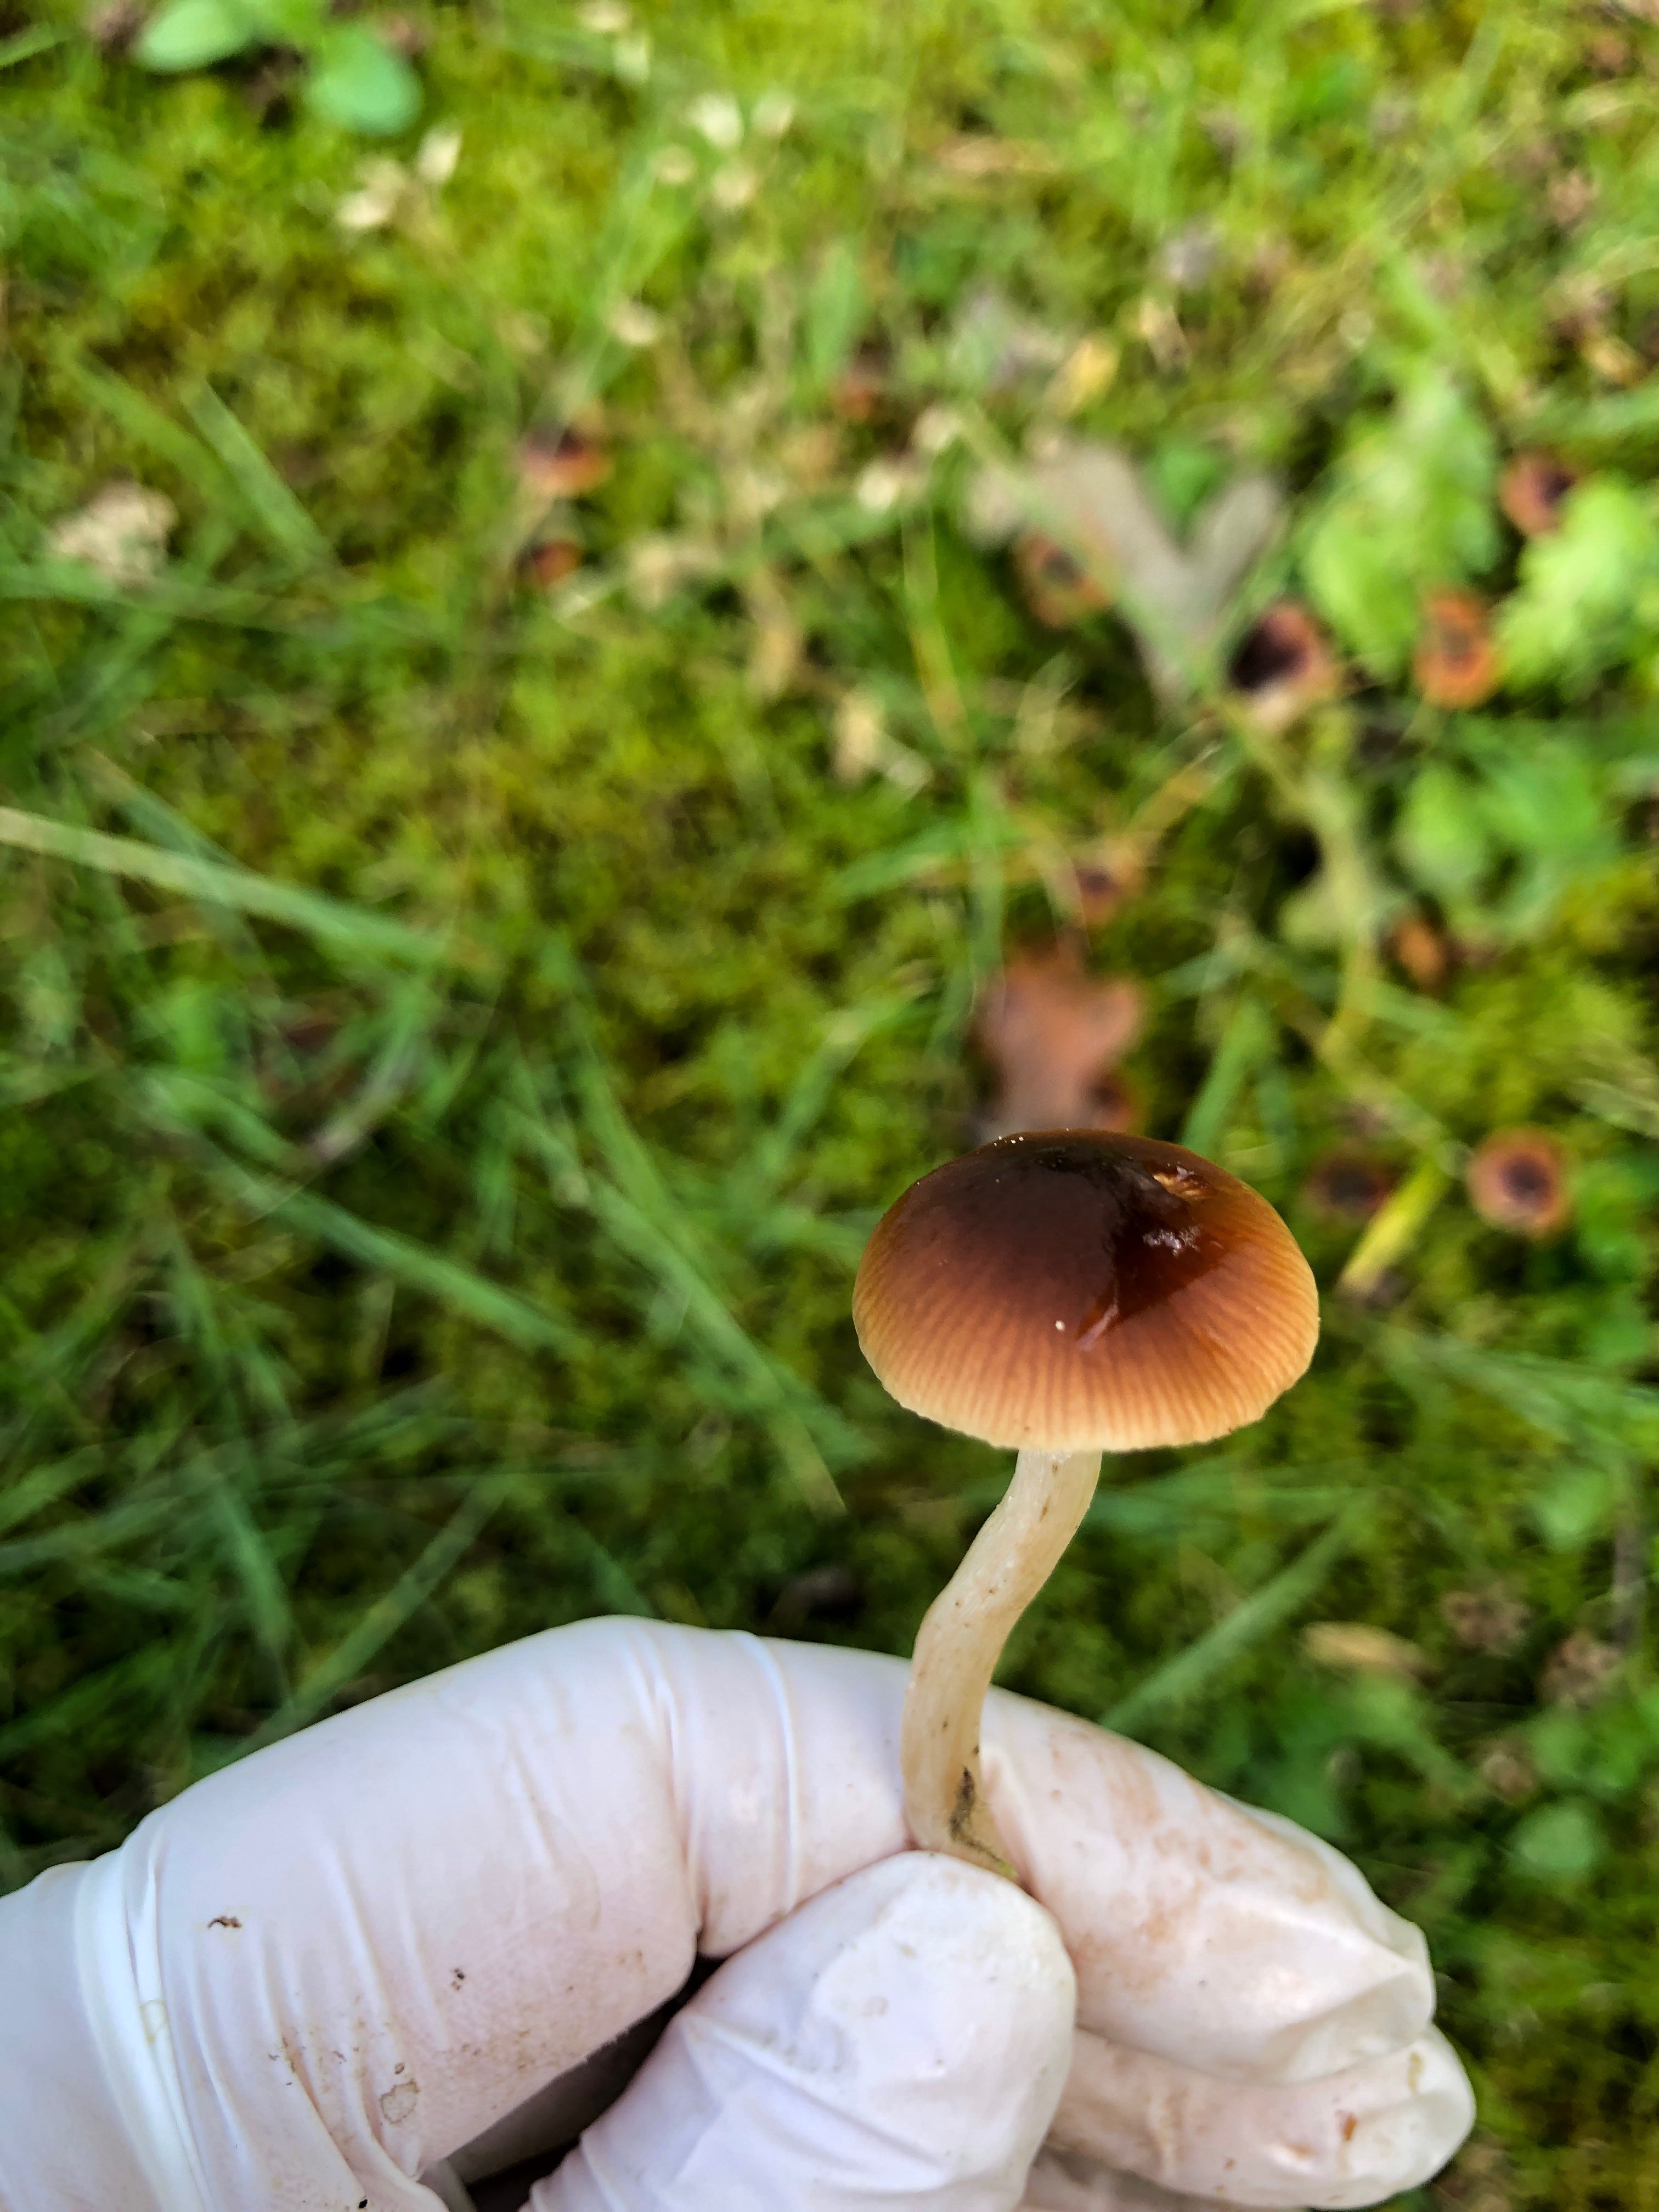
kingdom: Fungi
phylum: Basidiomycota
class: Agaricomycetes
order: Agaricales
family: Hymenogastraceae
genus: Naucoria
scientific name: Naucoria bohemica
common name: birke-knaphat
